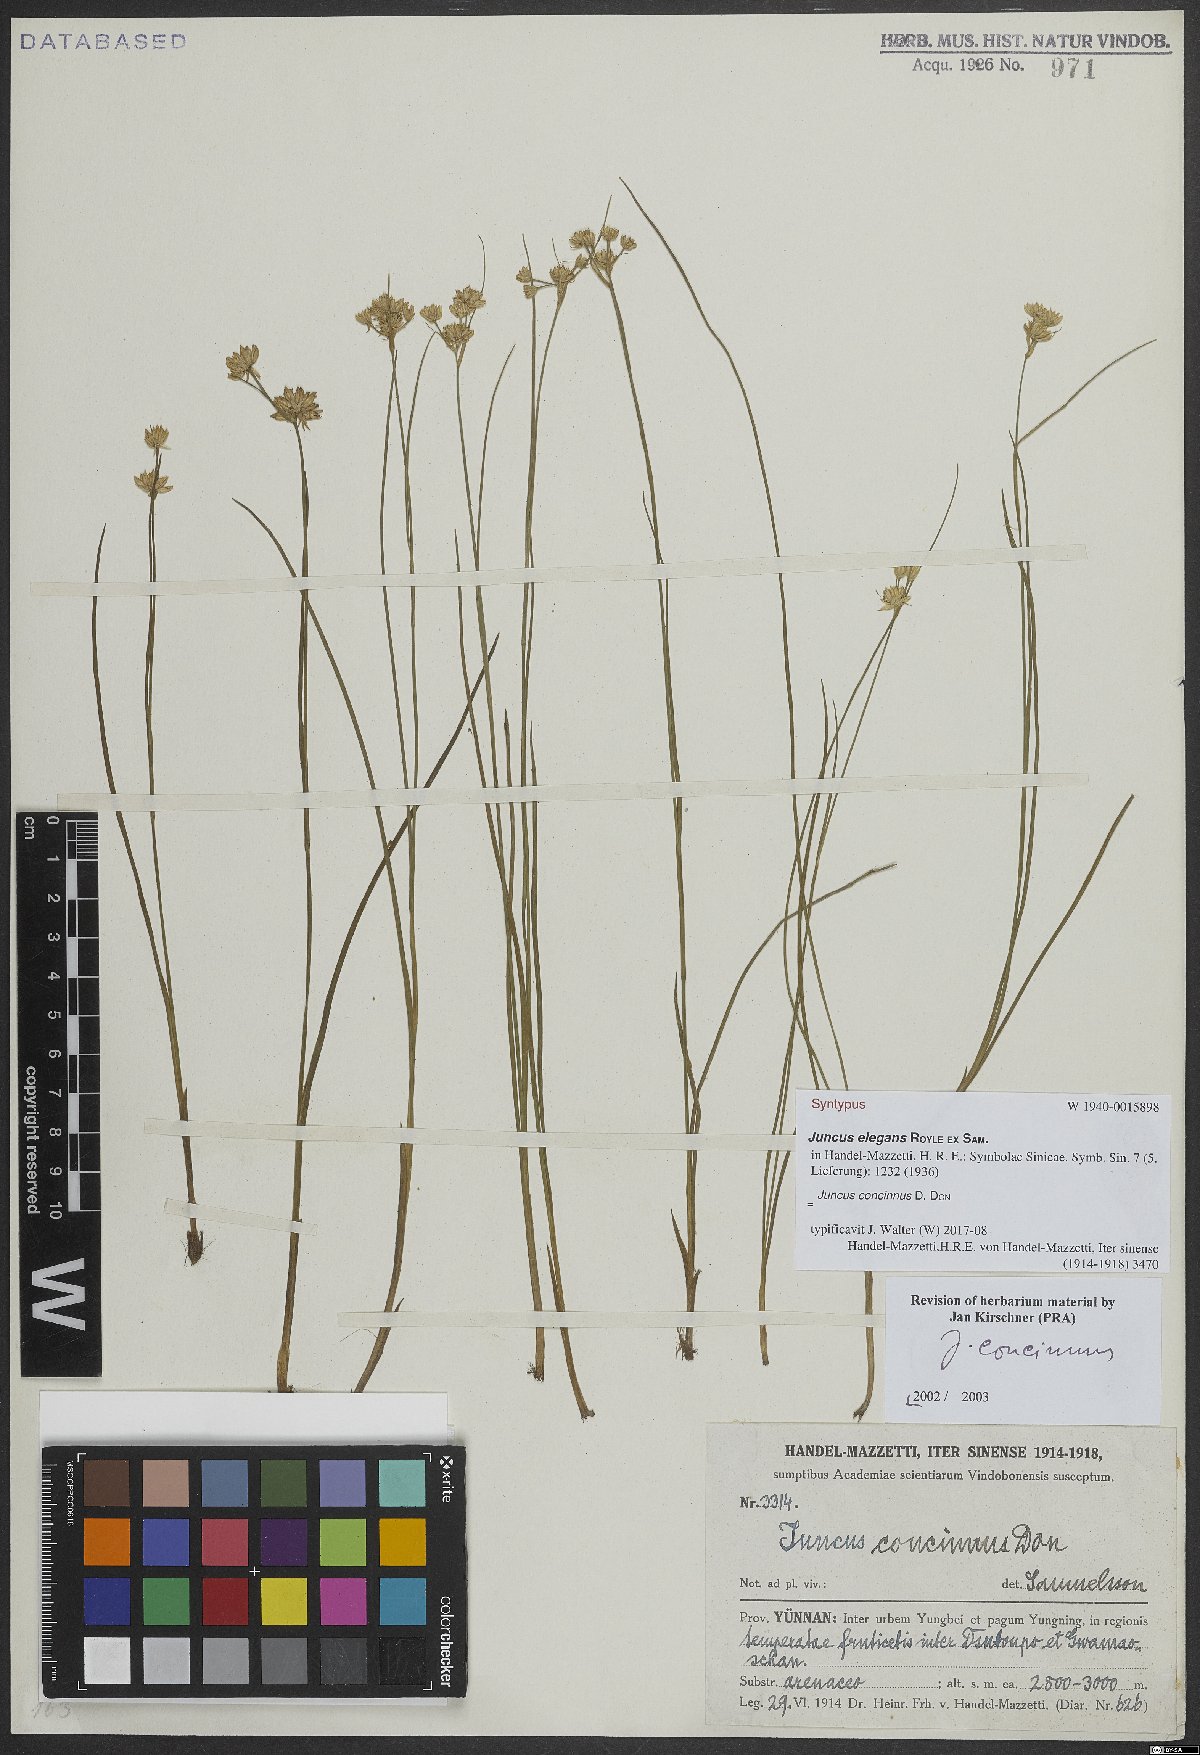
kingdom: Plantae
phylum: Tracheophyta
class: Liliopsida
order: Poales
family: Juncaceae
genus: Juncus
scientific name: Juncus concinnus
